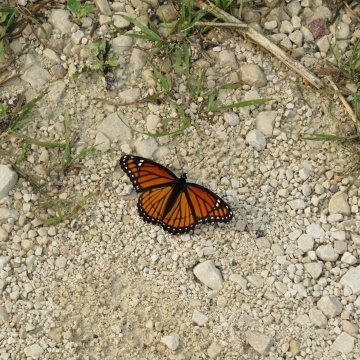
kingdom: Animalia
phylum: Arthropoda
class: Insecta
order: Lepidoptera
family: Nymphalidae
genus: Limenitis
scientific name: Limenitis archippus
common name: Viceroy
